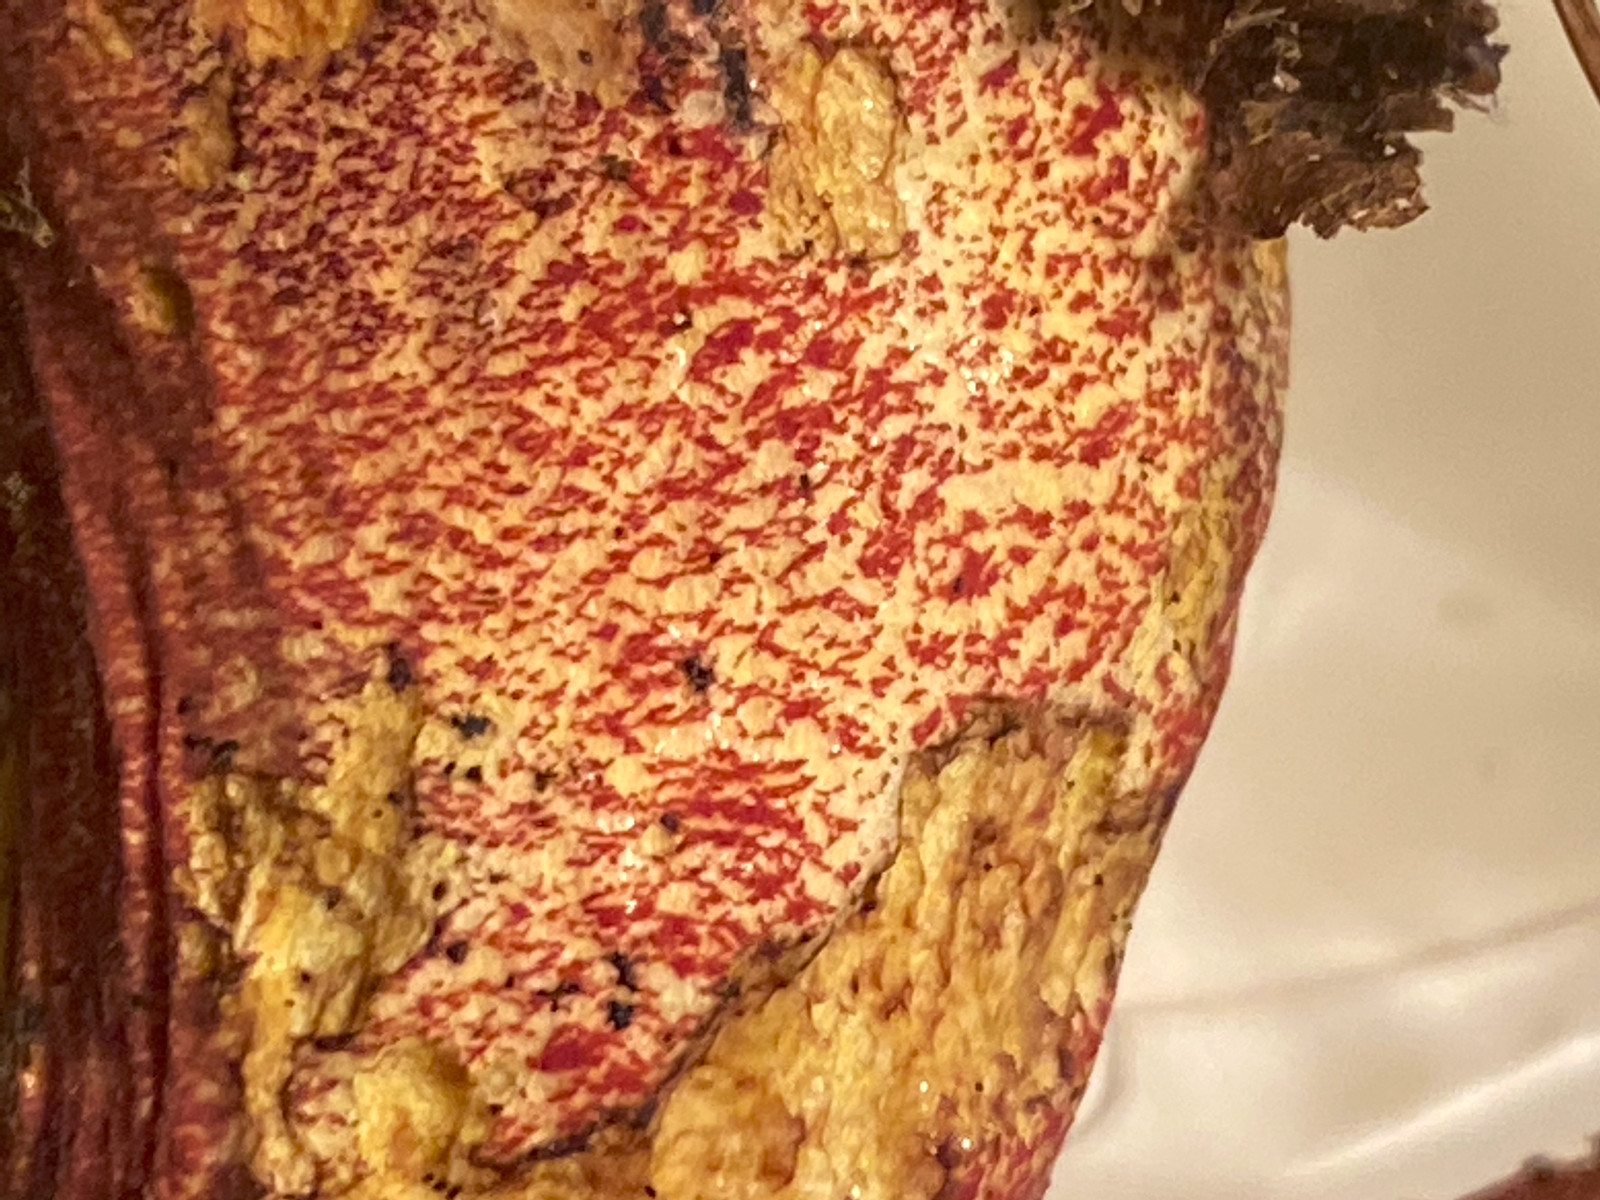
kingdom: Fungi
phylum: Basidiomycota
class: Agaricomycetes
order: Boletales
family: Boletaceae
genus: Neoboletus
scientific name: Neoboletus erythropus
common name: punktstokket indigorørhat
